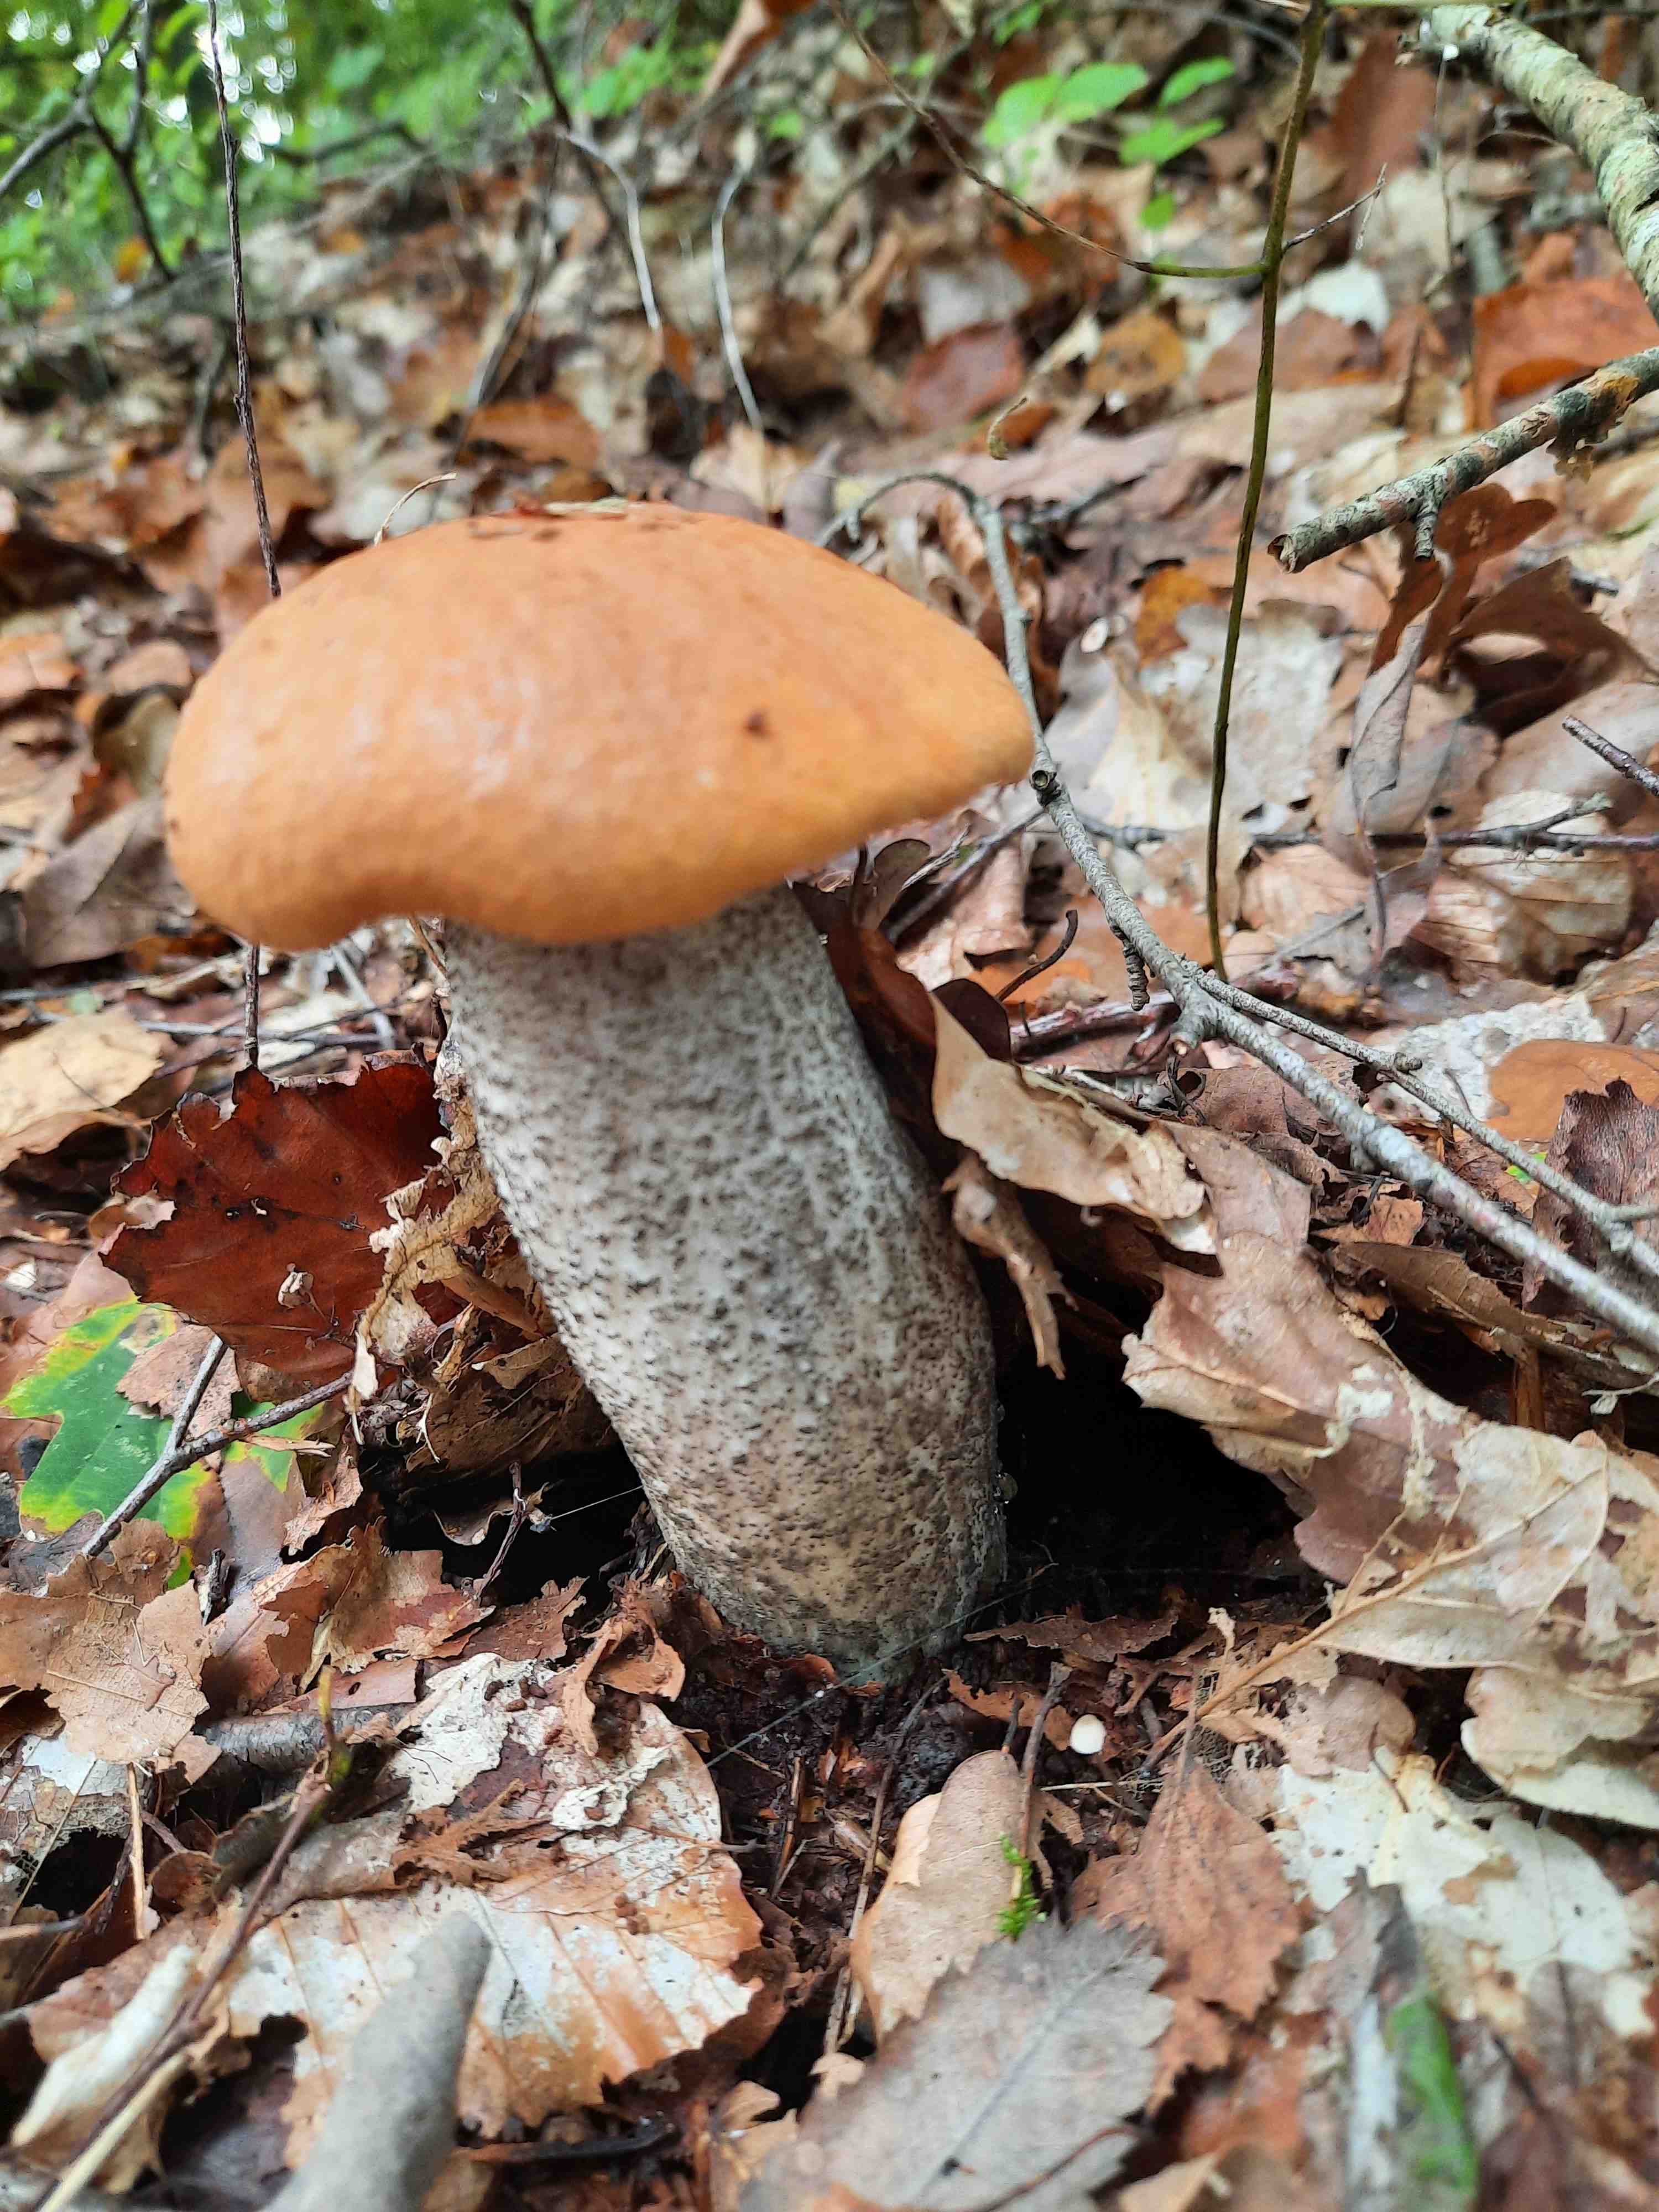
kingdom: Fungi
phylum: Basidiomycota
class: Agaricomycetes
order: Boletales
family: Boletaceae
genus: Leccinum
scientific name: Leccinum versipelle
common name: orange skælrørhat
